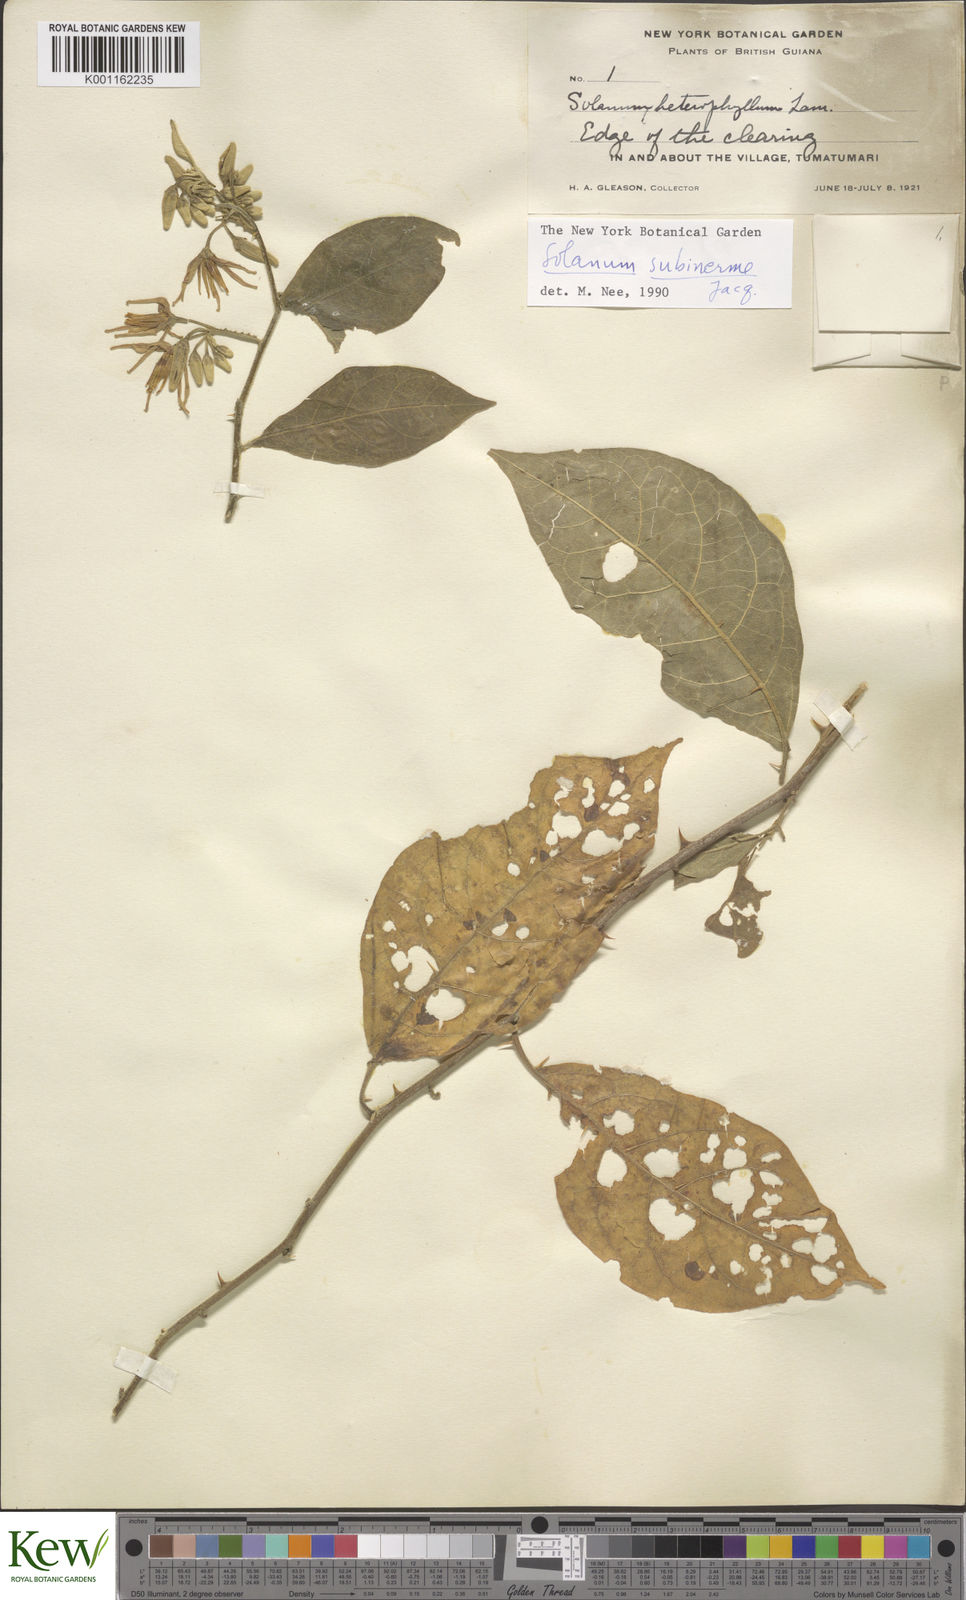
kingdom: Plantae
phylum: Tracheophyta
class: Magnoliopsida
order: Solanales
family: Solanaceae
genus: Solanum
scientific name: Solanum subinerme
